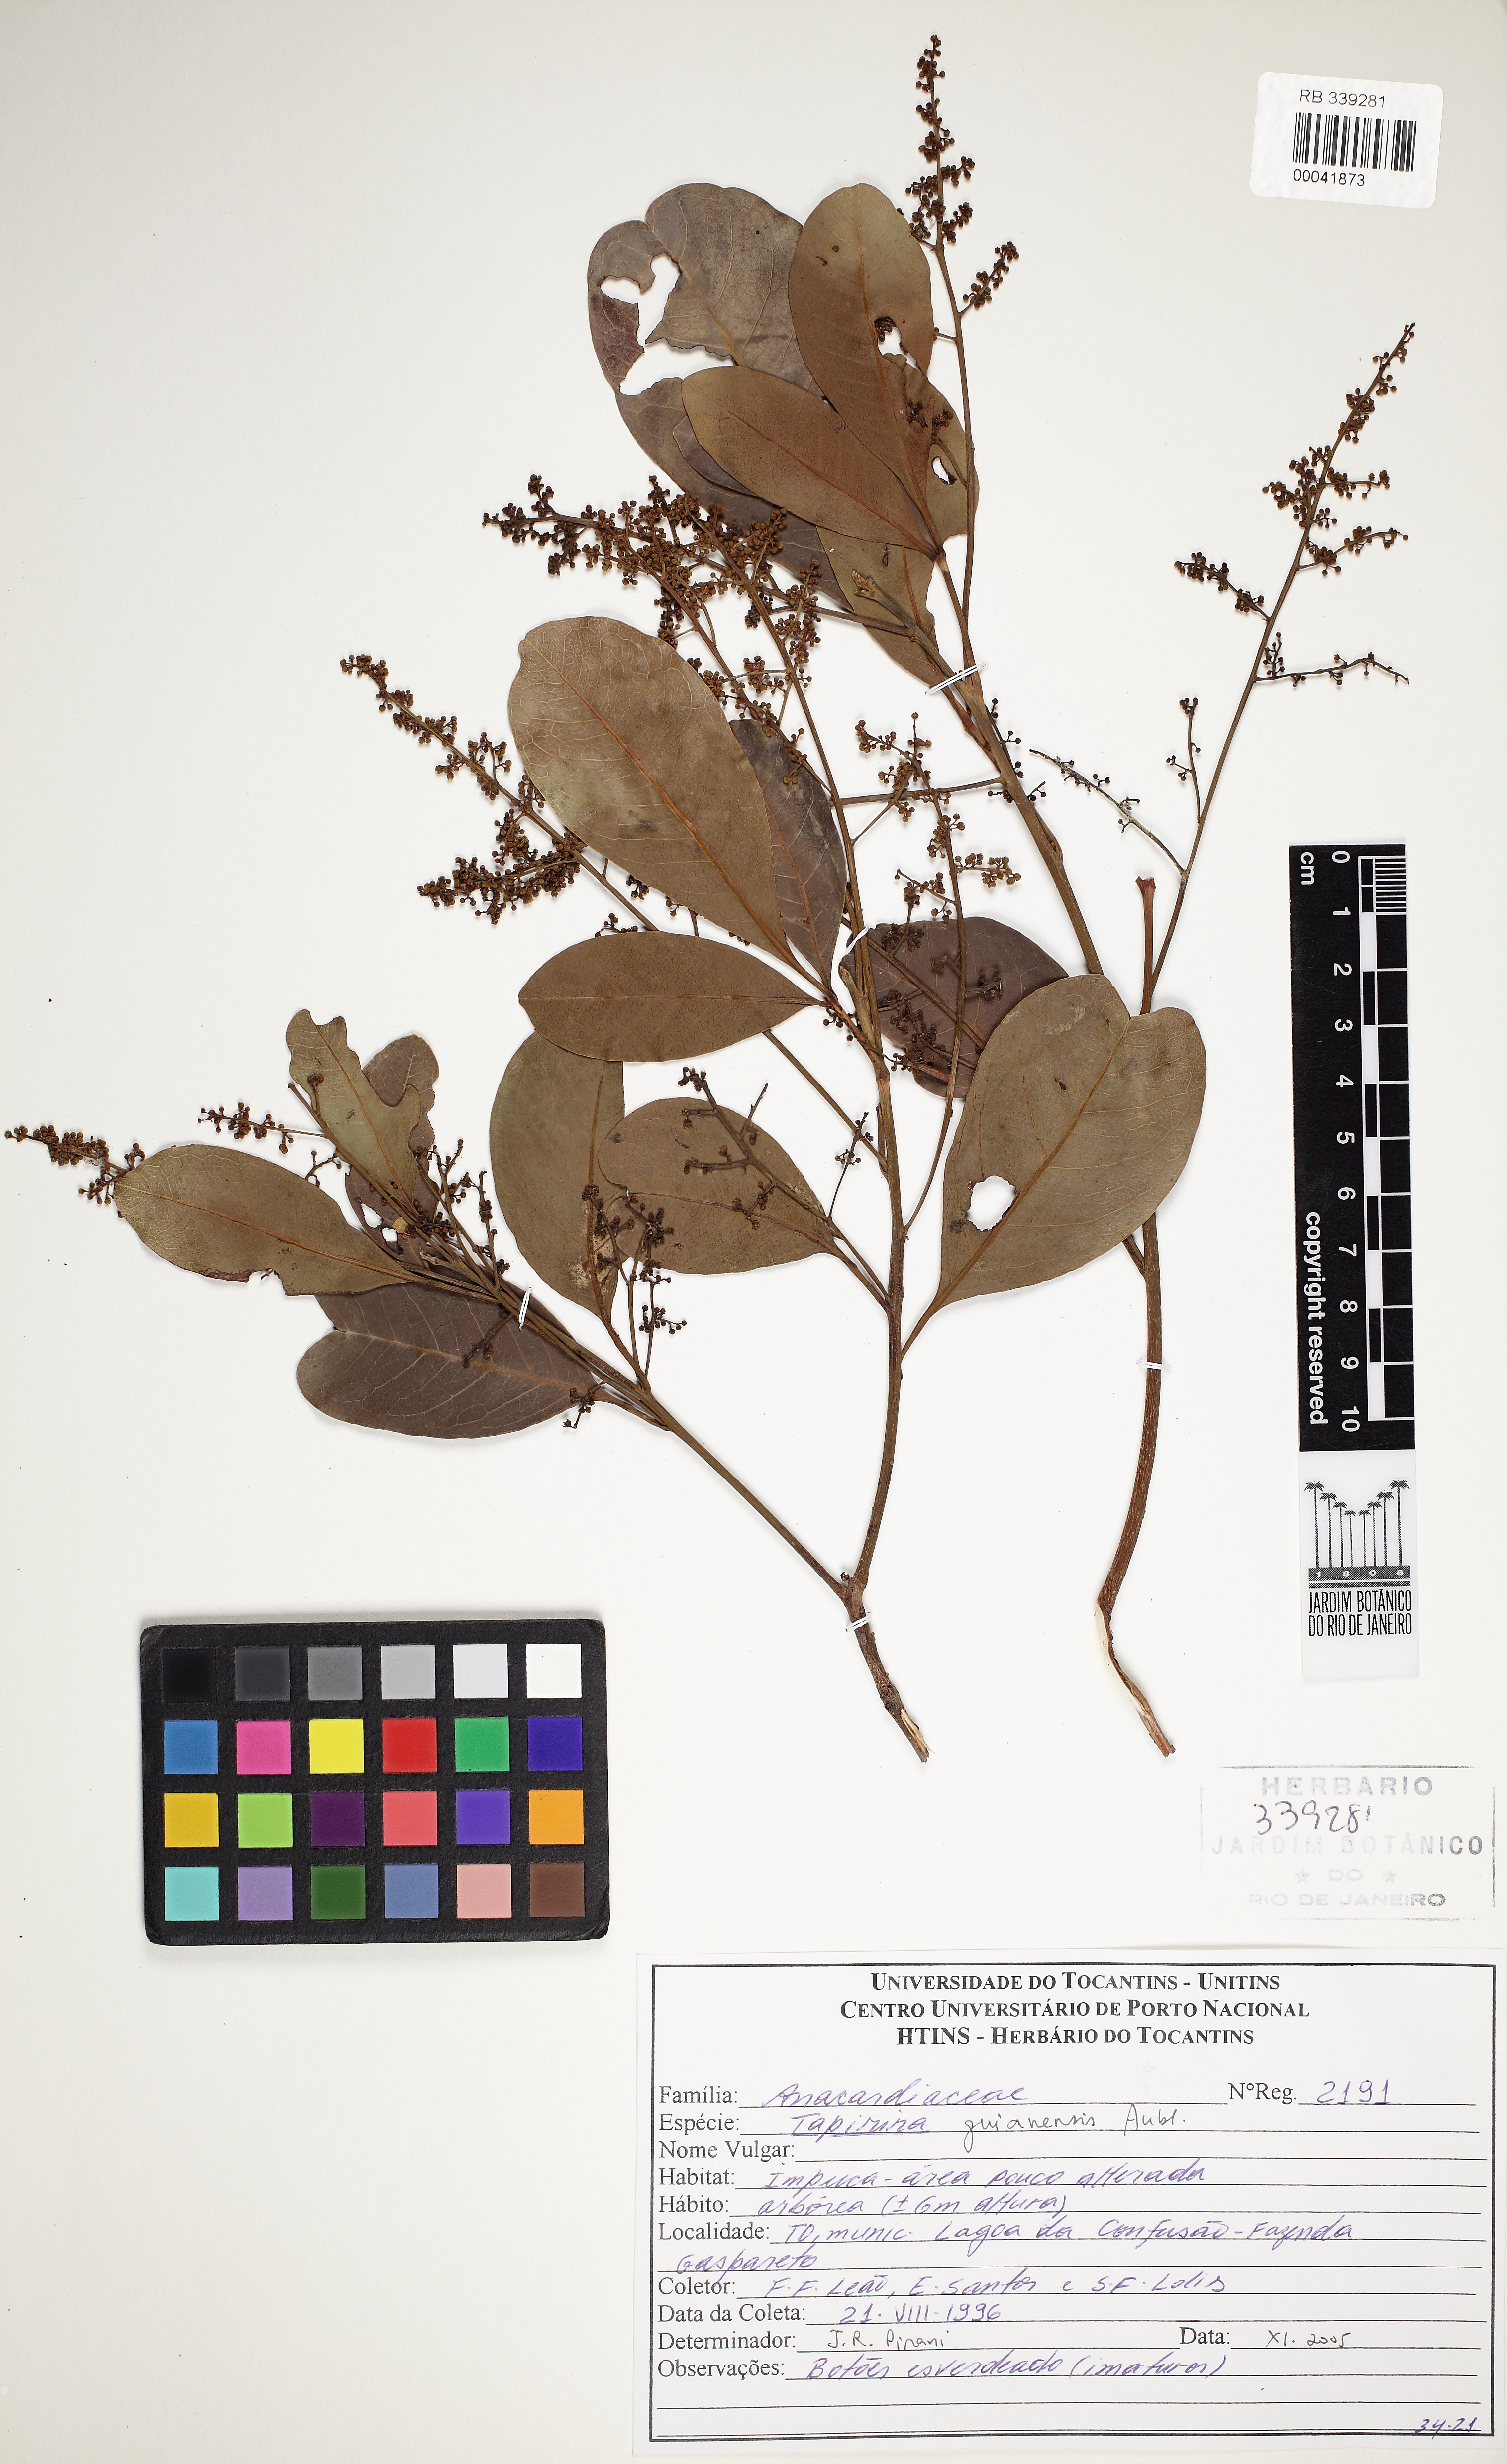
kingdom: Plantae
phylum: Tracheophyta
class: Magnoliopsida
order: Sapindales
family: Anacardiaceae
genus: Tapirira
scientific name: Tapirira guianensis
